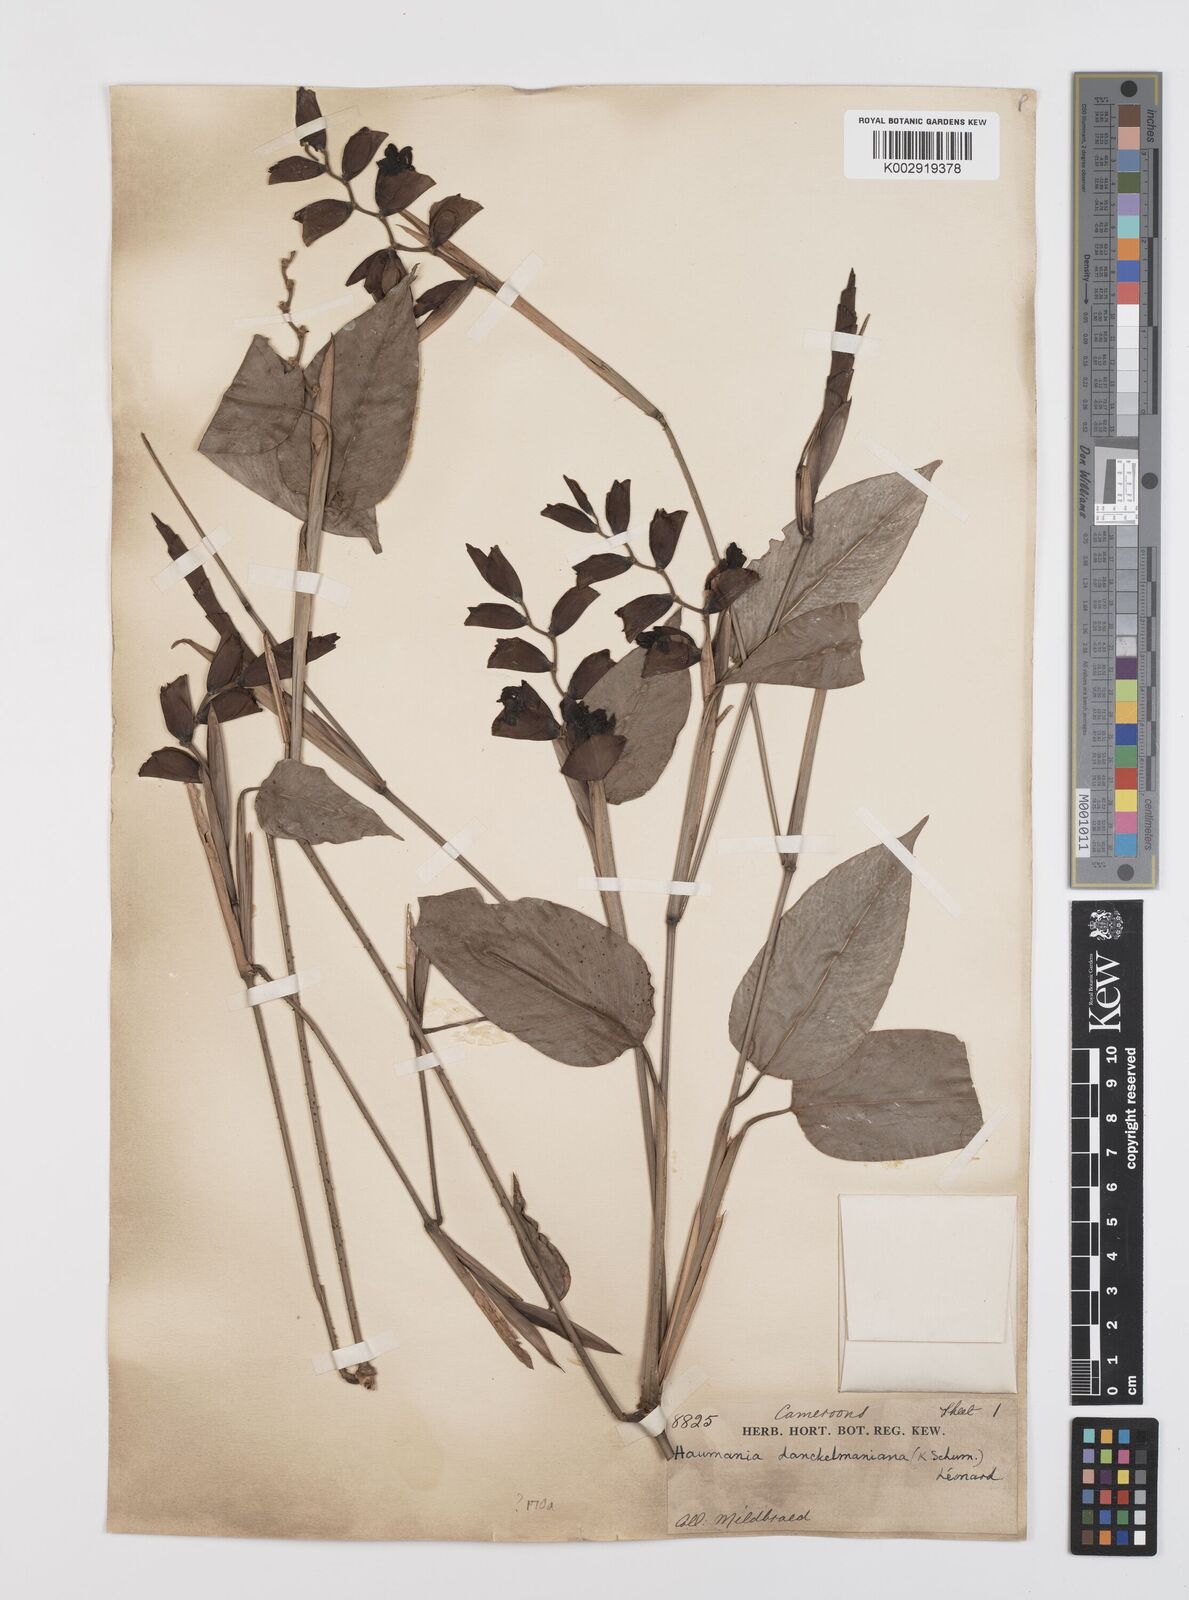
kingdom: Plantae
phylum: Tracheophyta
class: Liliopsida
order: Zingiberales
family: Marantaceae
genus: Haumania
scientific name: Haumania danckelmaniana
